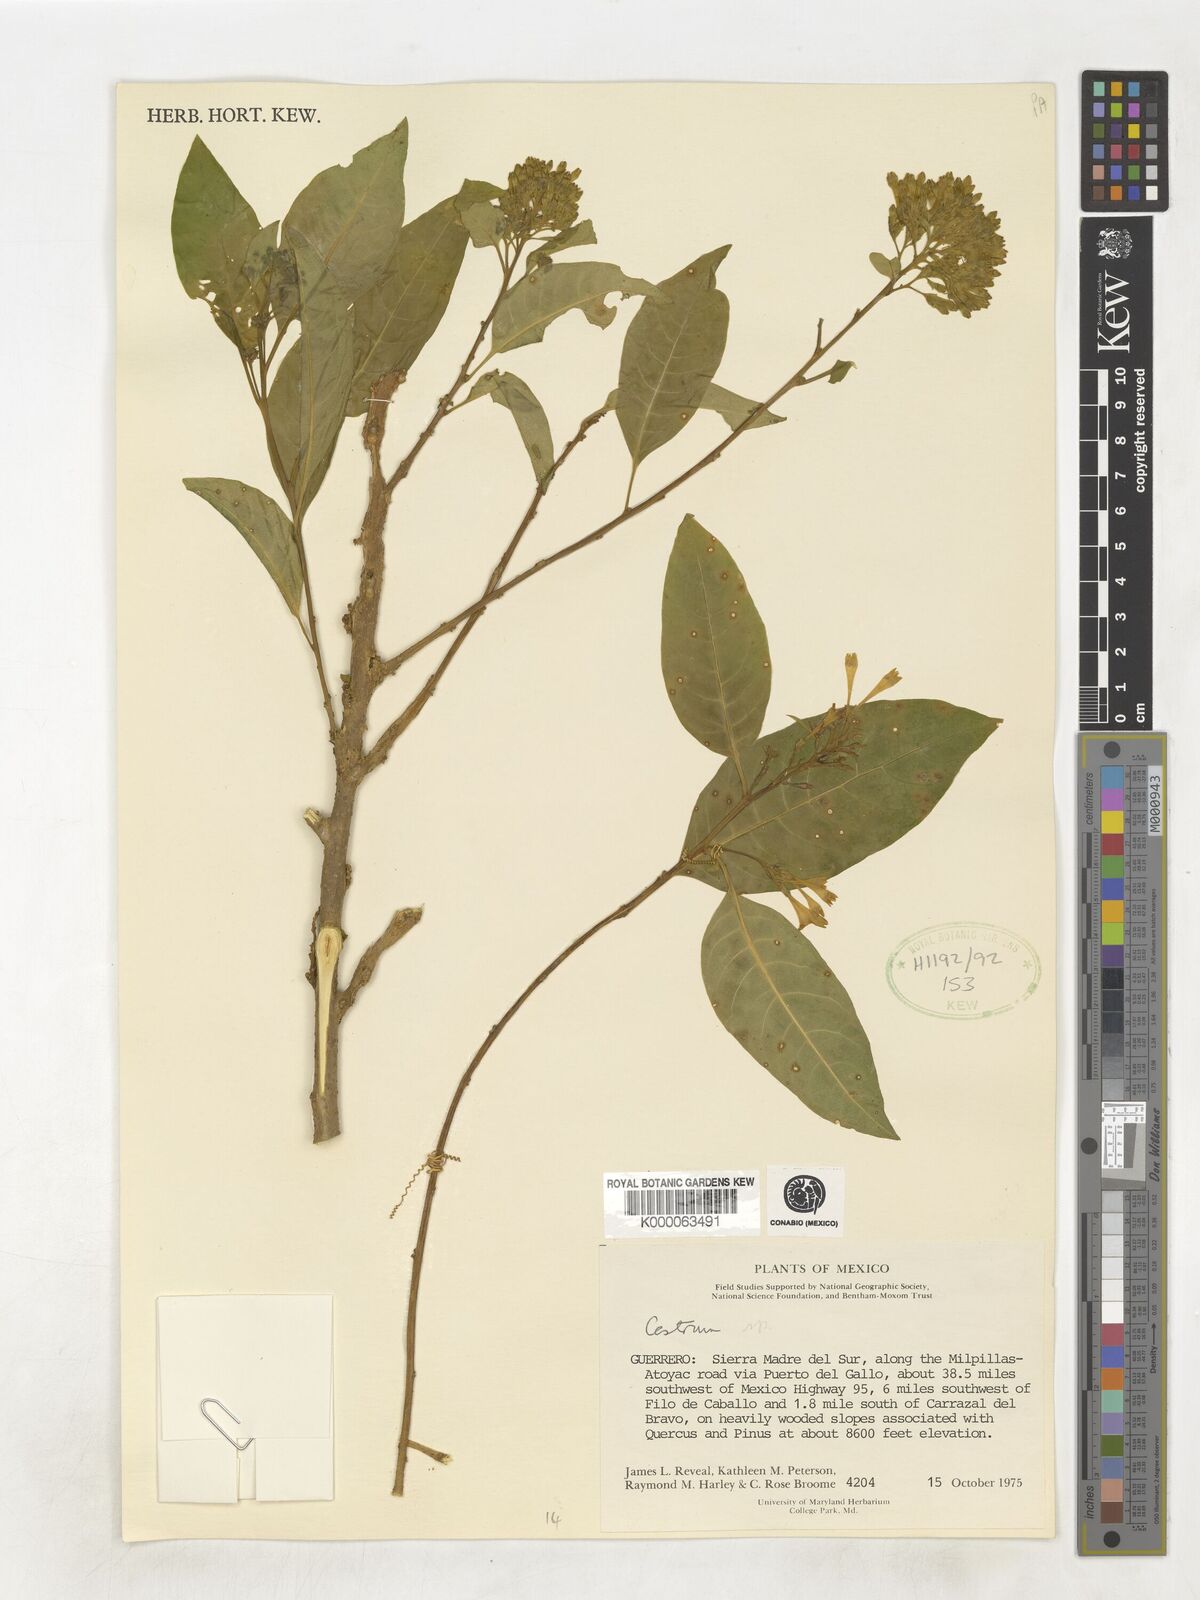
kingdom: Plantae
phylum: Tracheophyta
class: Magnoliopsida
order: Solanales
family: Solanaceae
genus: Cestrum
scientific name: Cestrum
